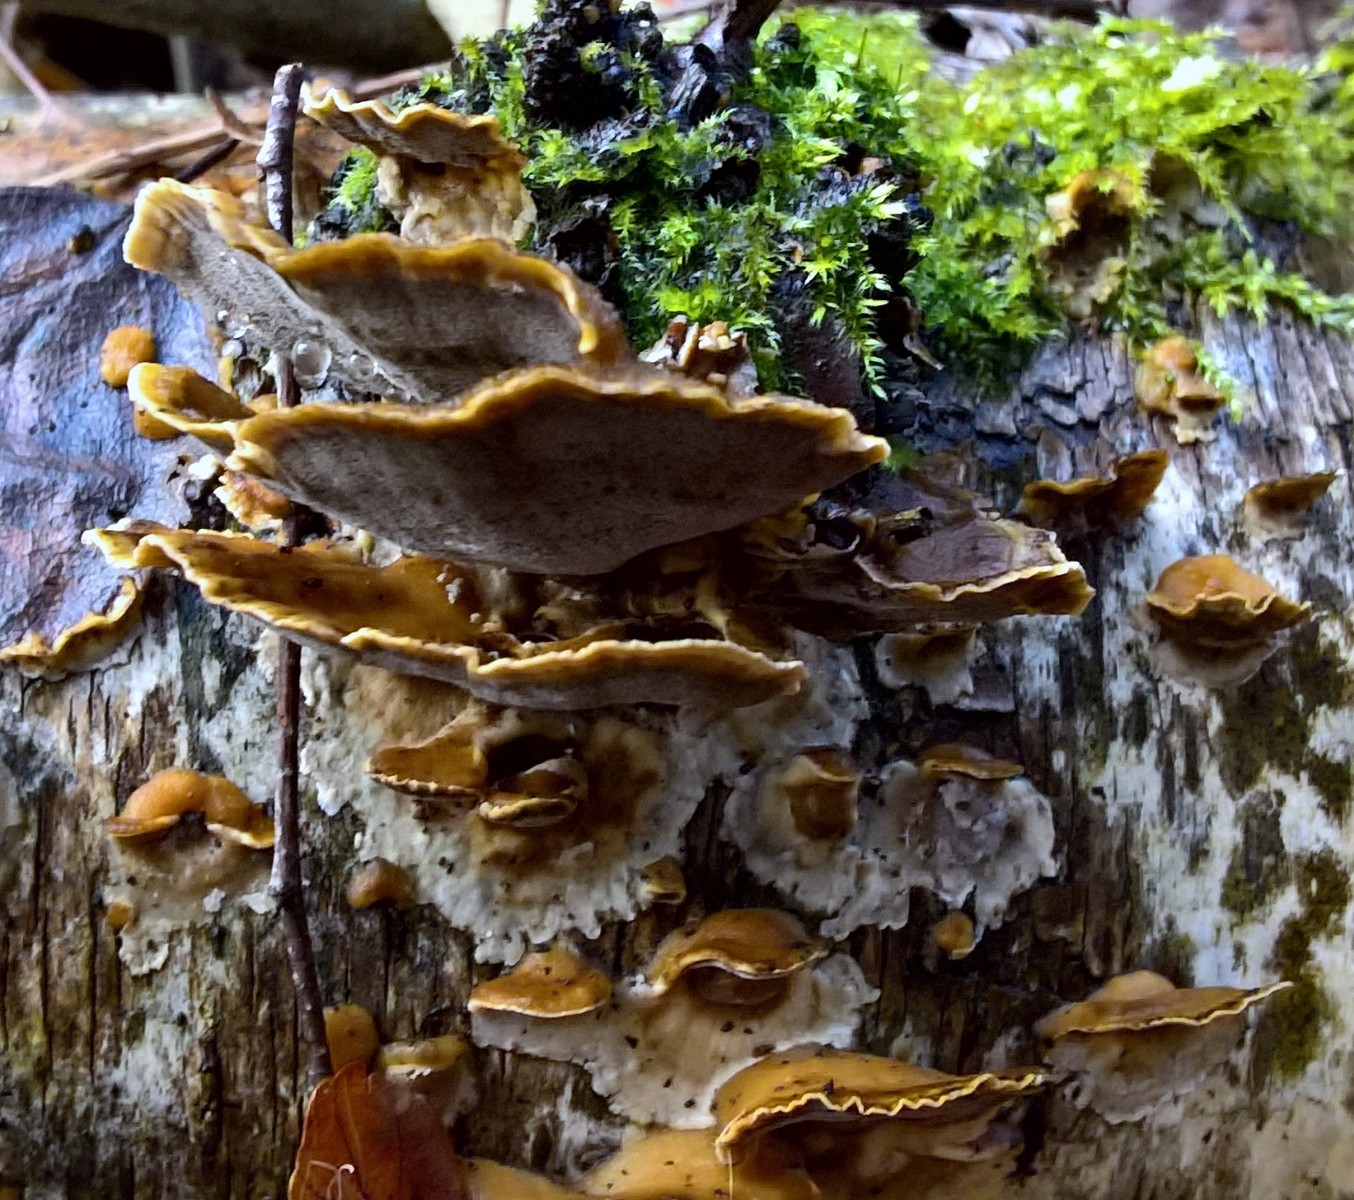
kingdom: Fungi
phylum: Basidiomycota
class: Agaricomycetes
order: Polyporales
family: Phanerochaetaceae
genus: Bjerkandera
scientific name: Bjerkandera adusta
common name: sveden sodporesvamp
